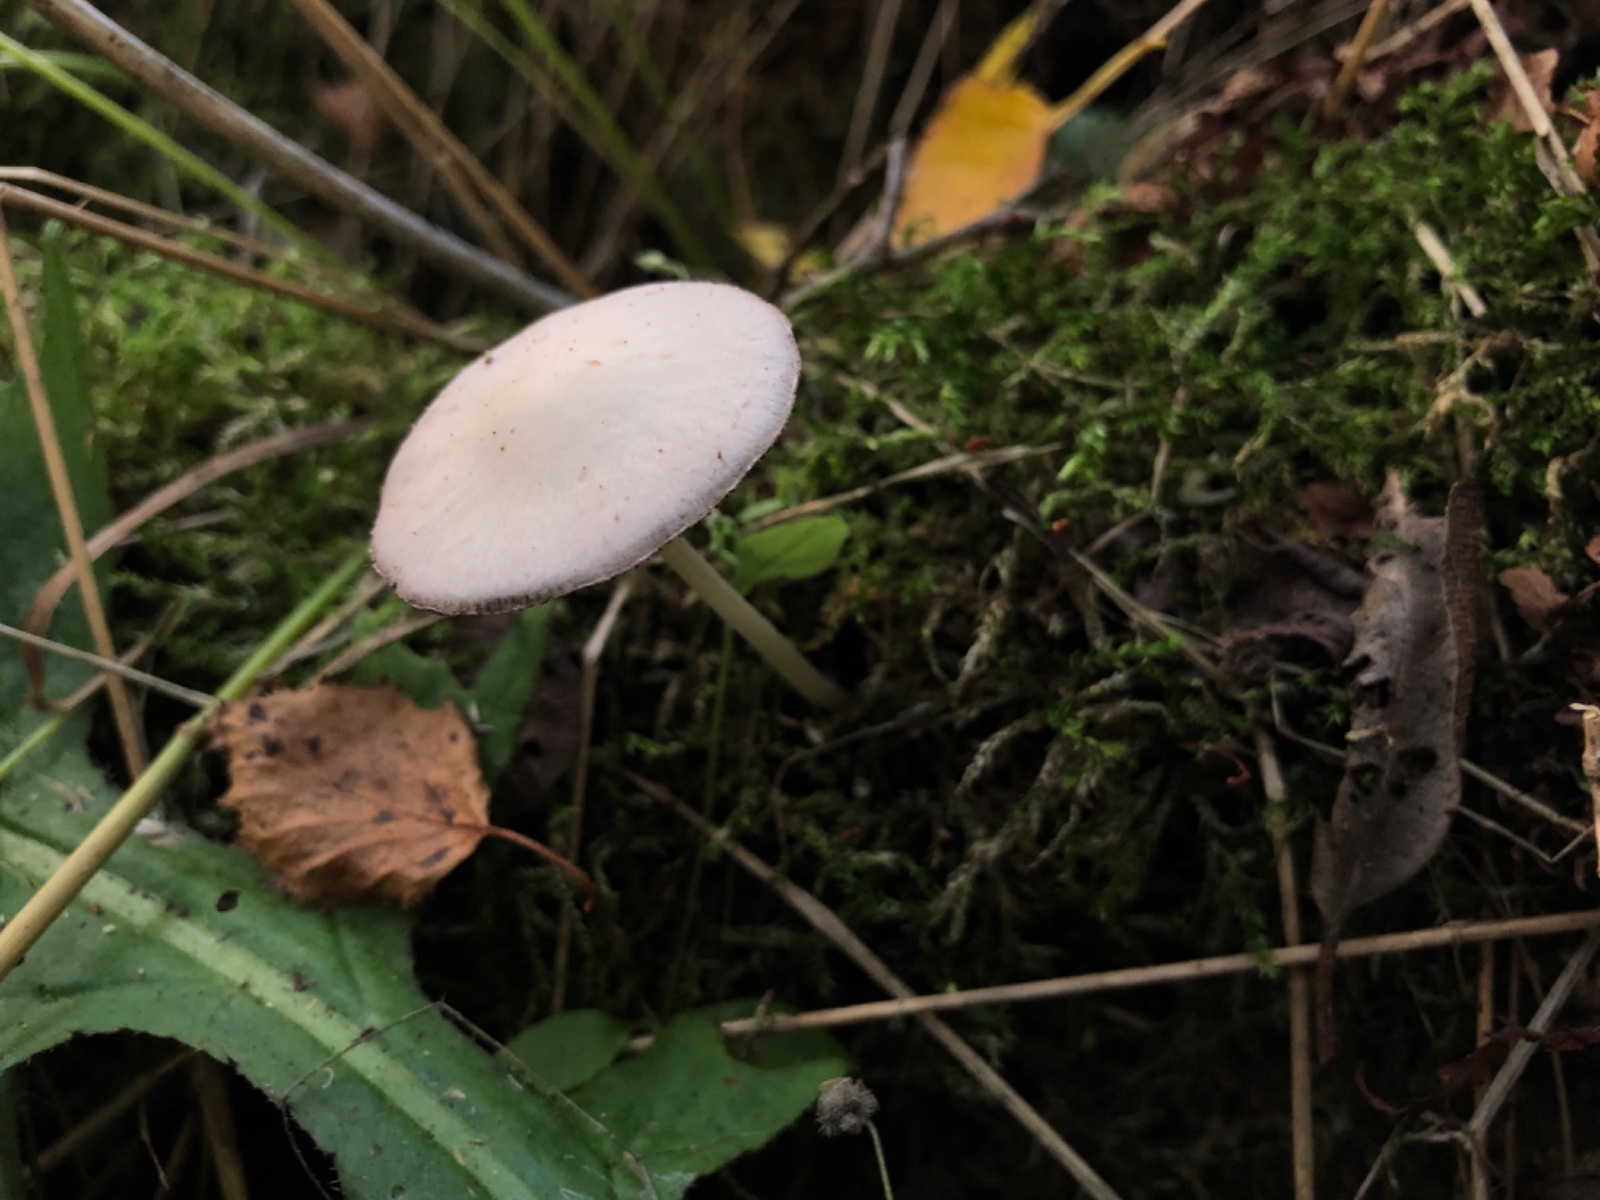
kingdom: Fungi
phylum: Basidiomycota
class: Agaricomycetes
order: Agaricales
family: Psathyrellaceae
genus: Candolleomyces
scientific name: Candolleomyces candolleanus
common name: Candolles mørkhat
